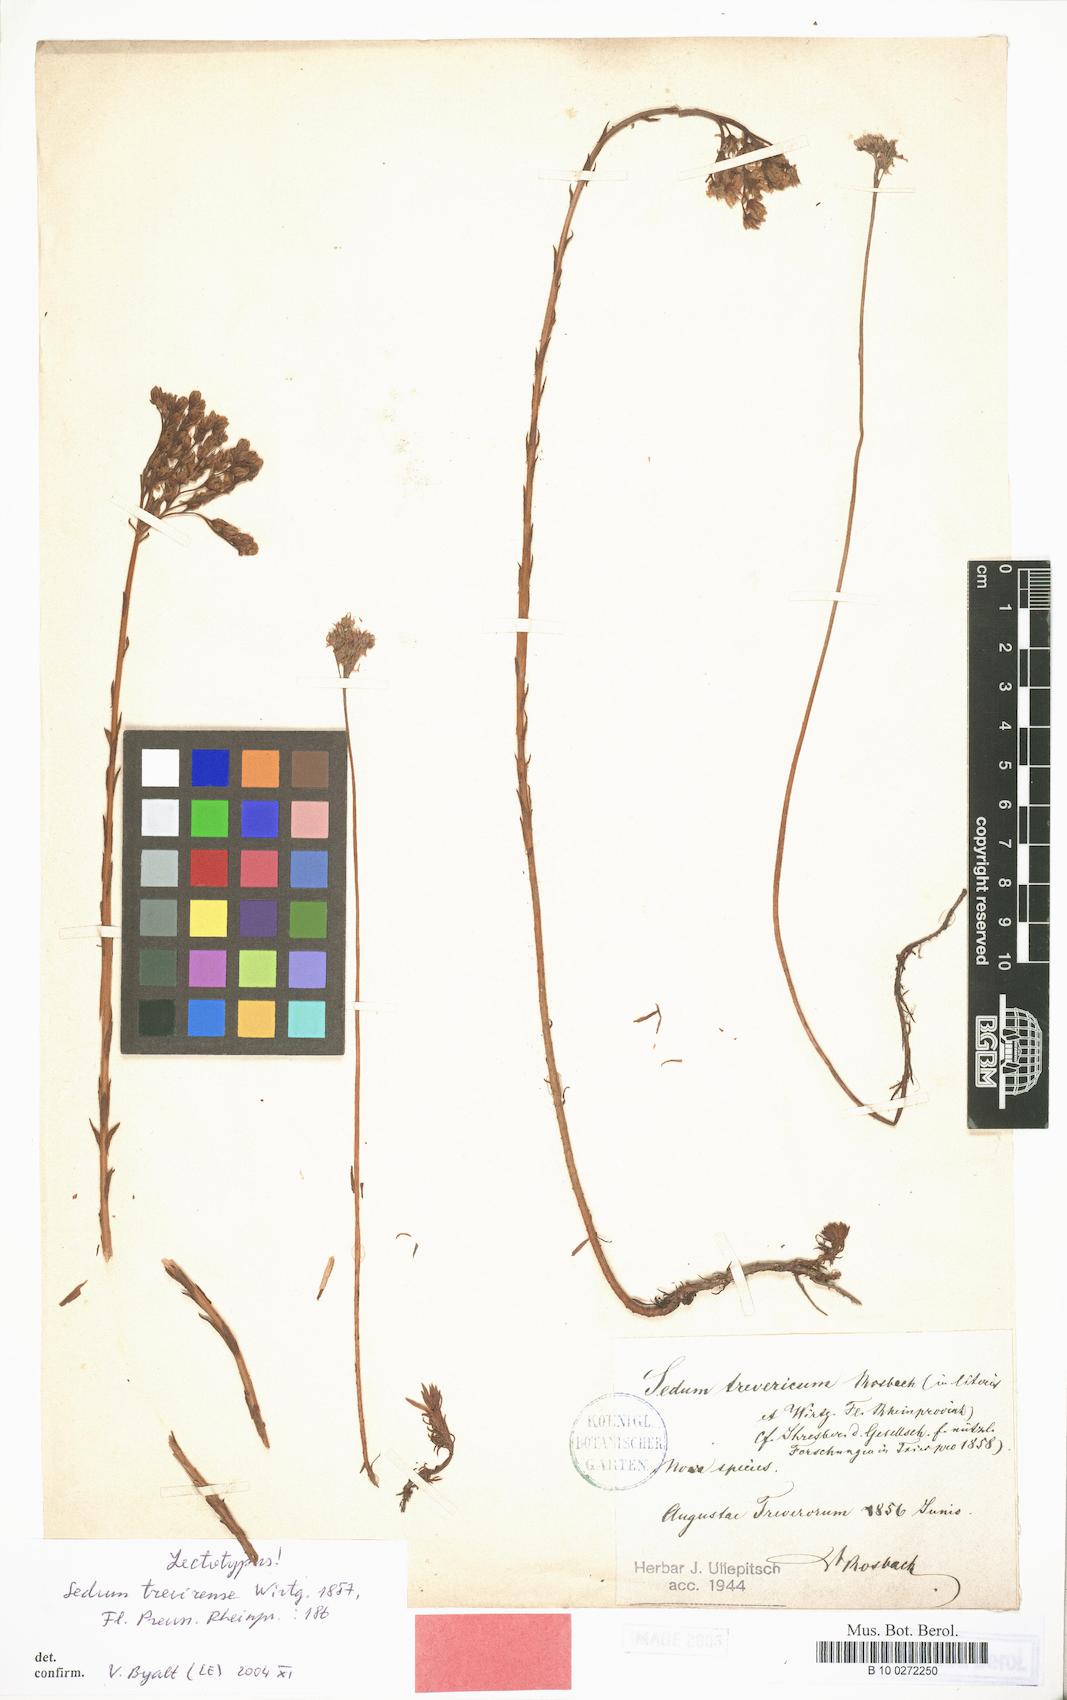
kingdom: Plantae
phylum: Tracheophyta
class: Magnoliopsida
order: Saxifragales
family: Crassulaceae
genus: Petrosedum
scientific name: Petrosedum forsterianum
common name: Forster's stonecrop
